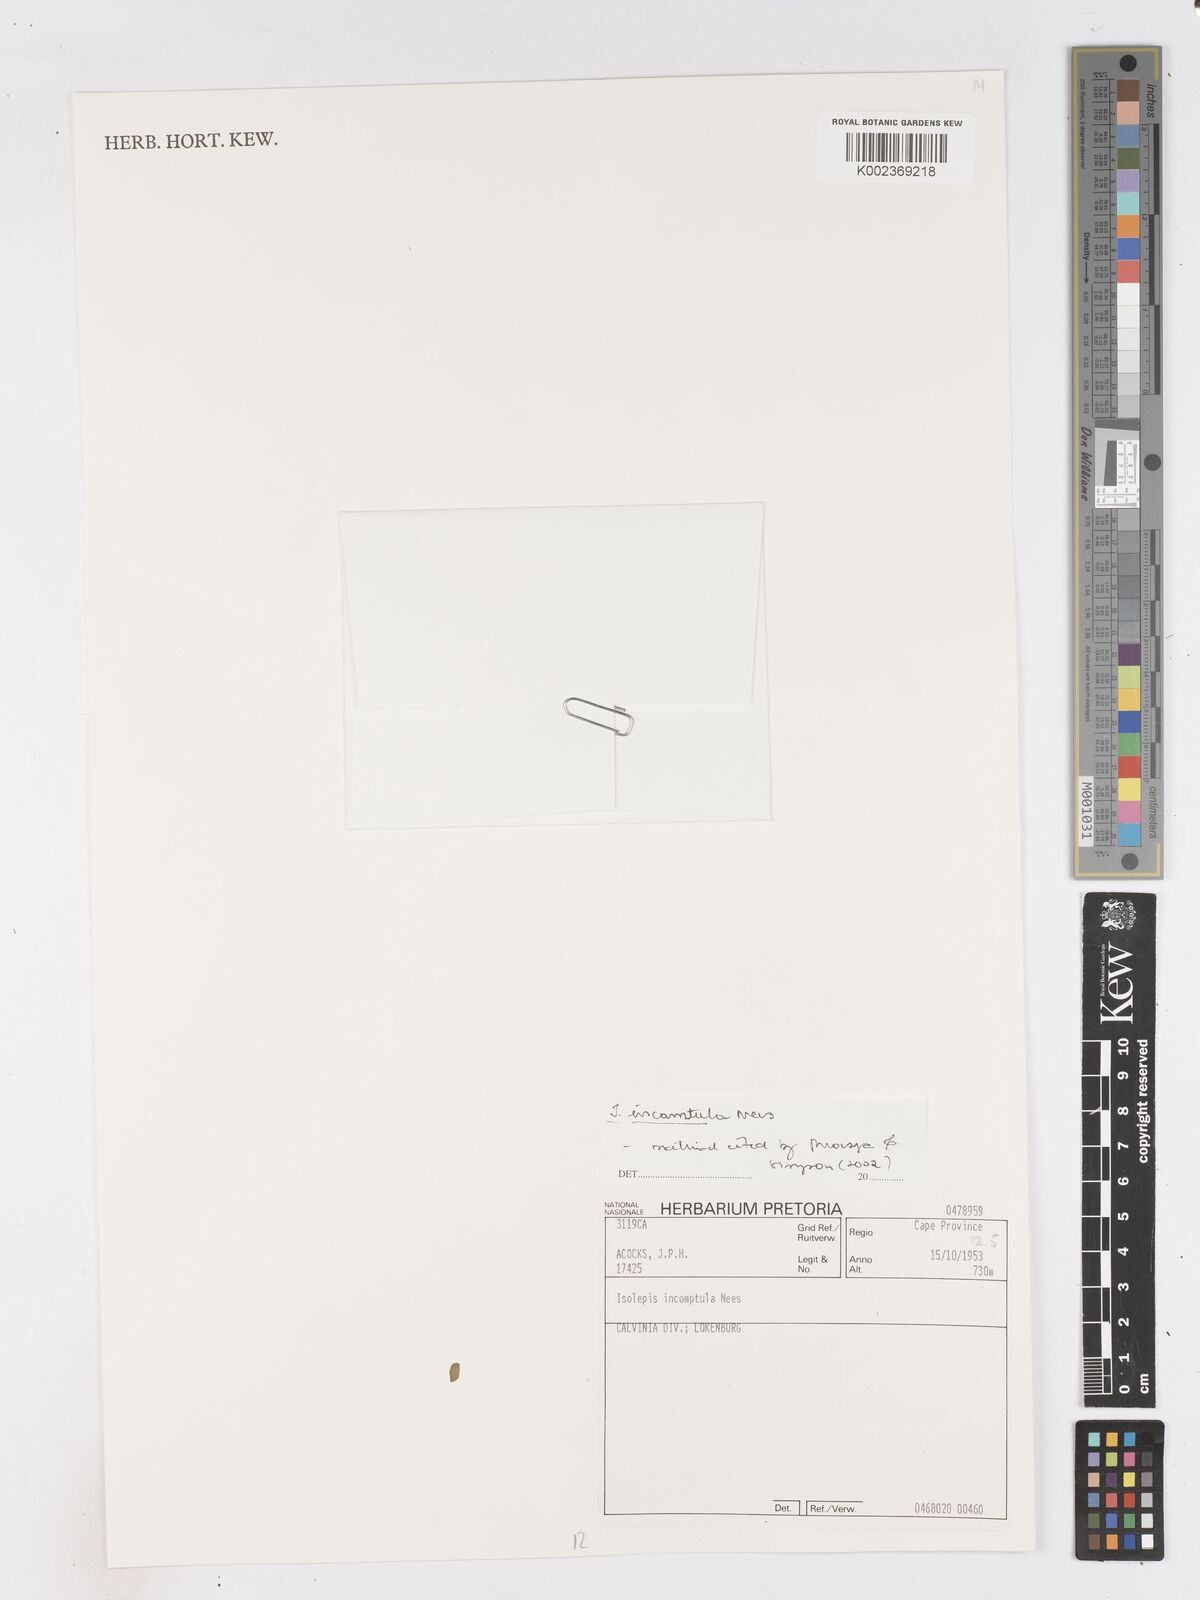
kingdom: Plantae
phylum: Tracheophyta
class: Liliopsida
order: Poales
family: Cyperaceae
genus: Ficinia
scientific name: Ficinia incomtula
